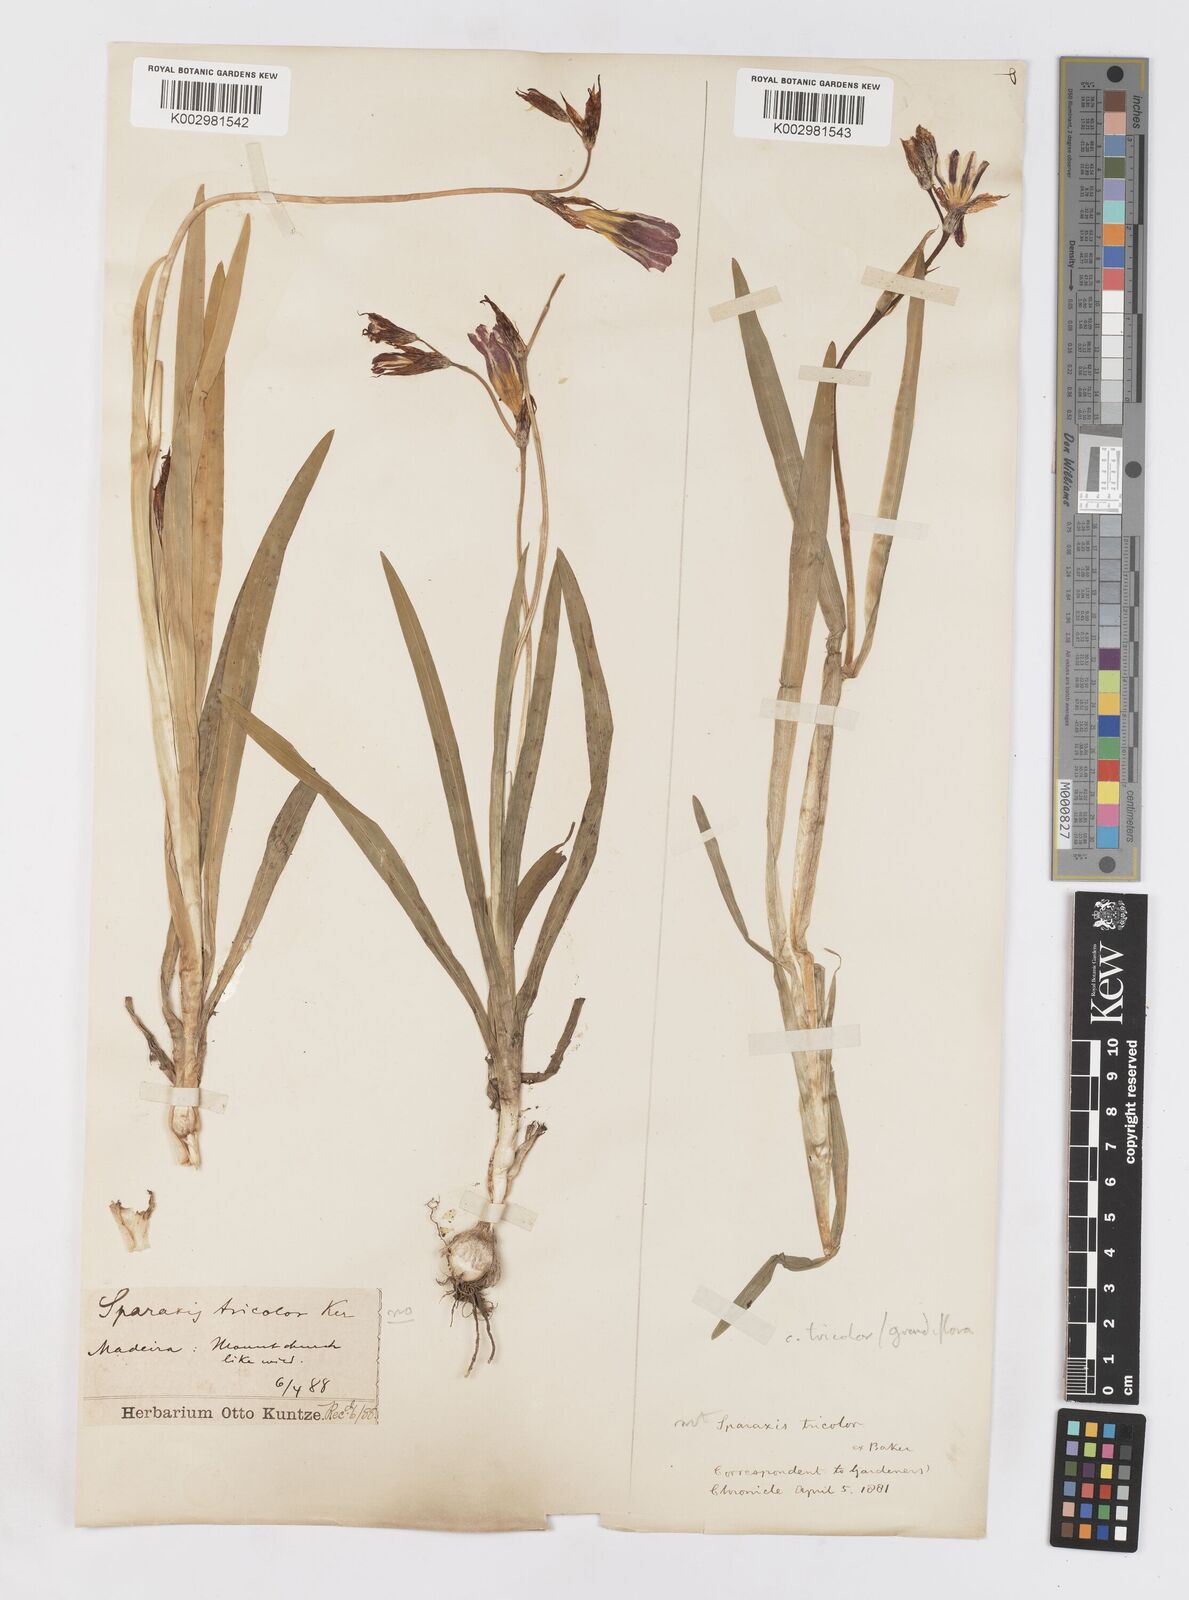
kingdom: Plantae
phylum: Tracheophyta
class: Liliopsida
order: Asparagales
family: Iridaceae
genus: Sparaxis
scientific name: Sparaxis
